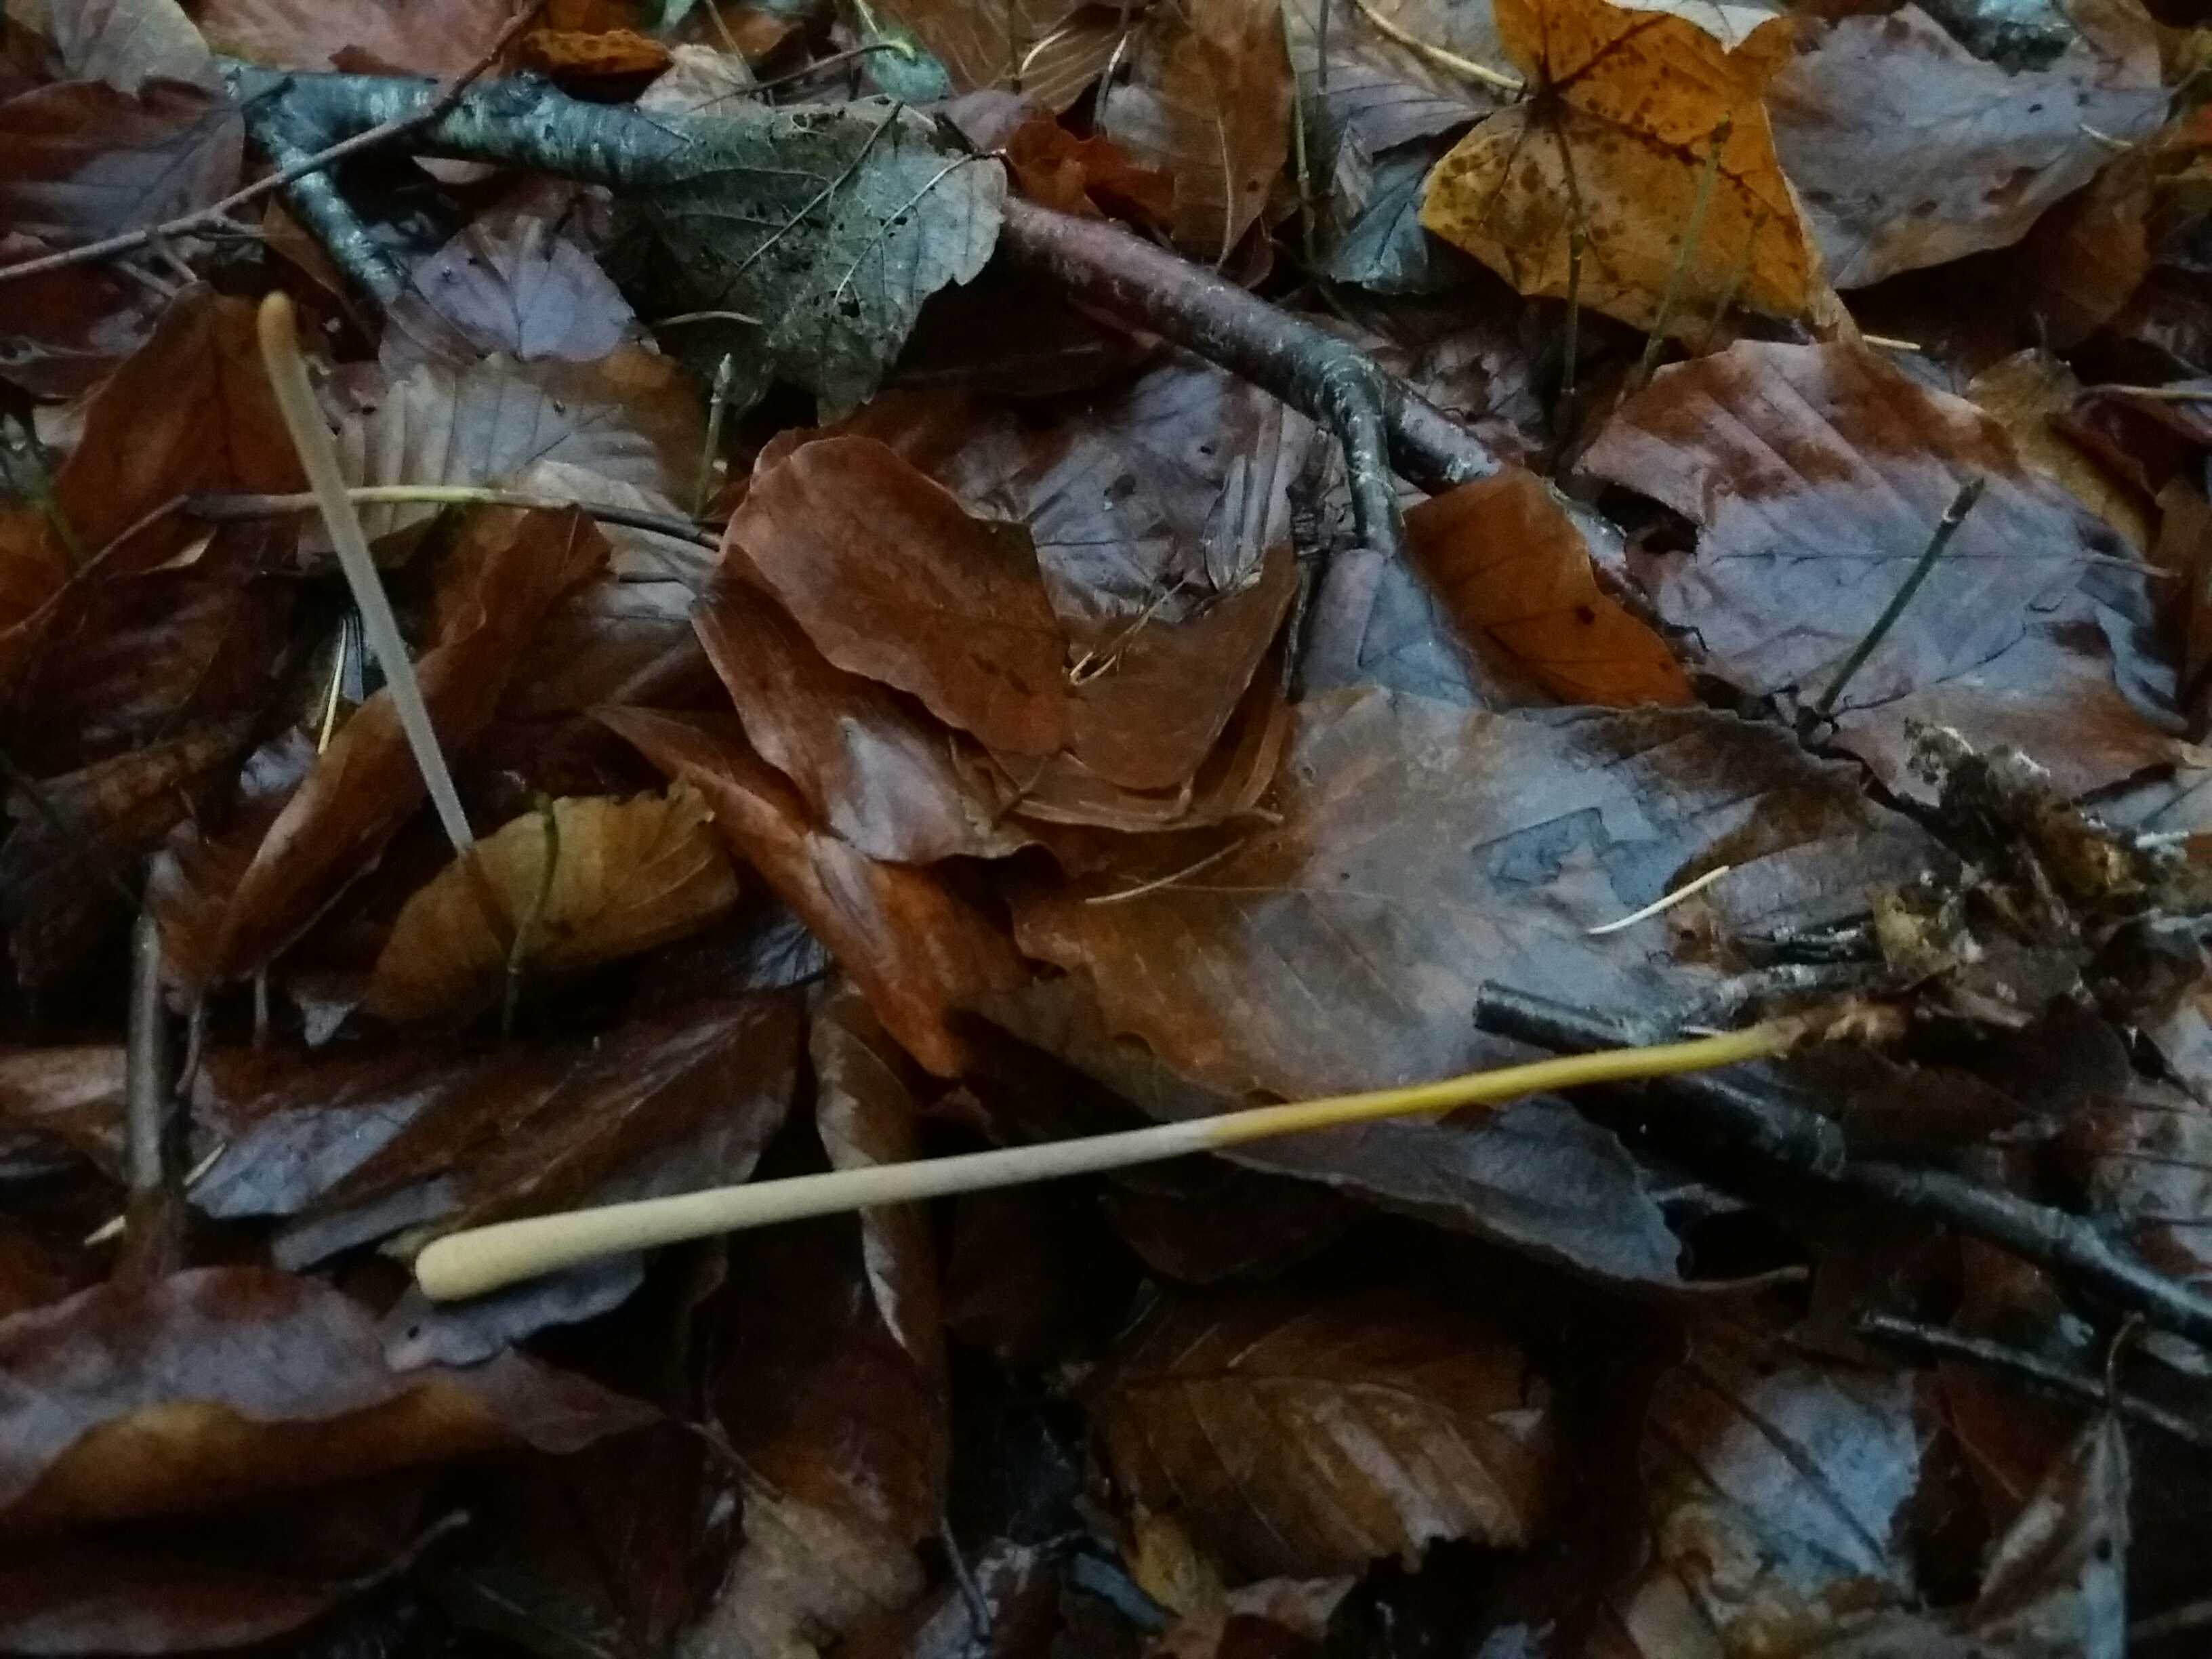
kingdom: Fungi
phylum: Basidiomycota
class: Agaricomycetes
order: Agaricales
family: Typhulaceae
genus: Typhula
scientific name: Typhula fistulosa
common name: pibet rørkølle
